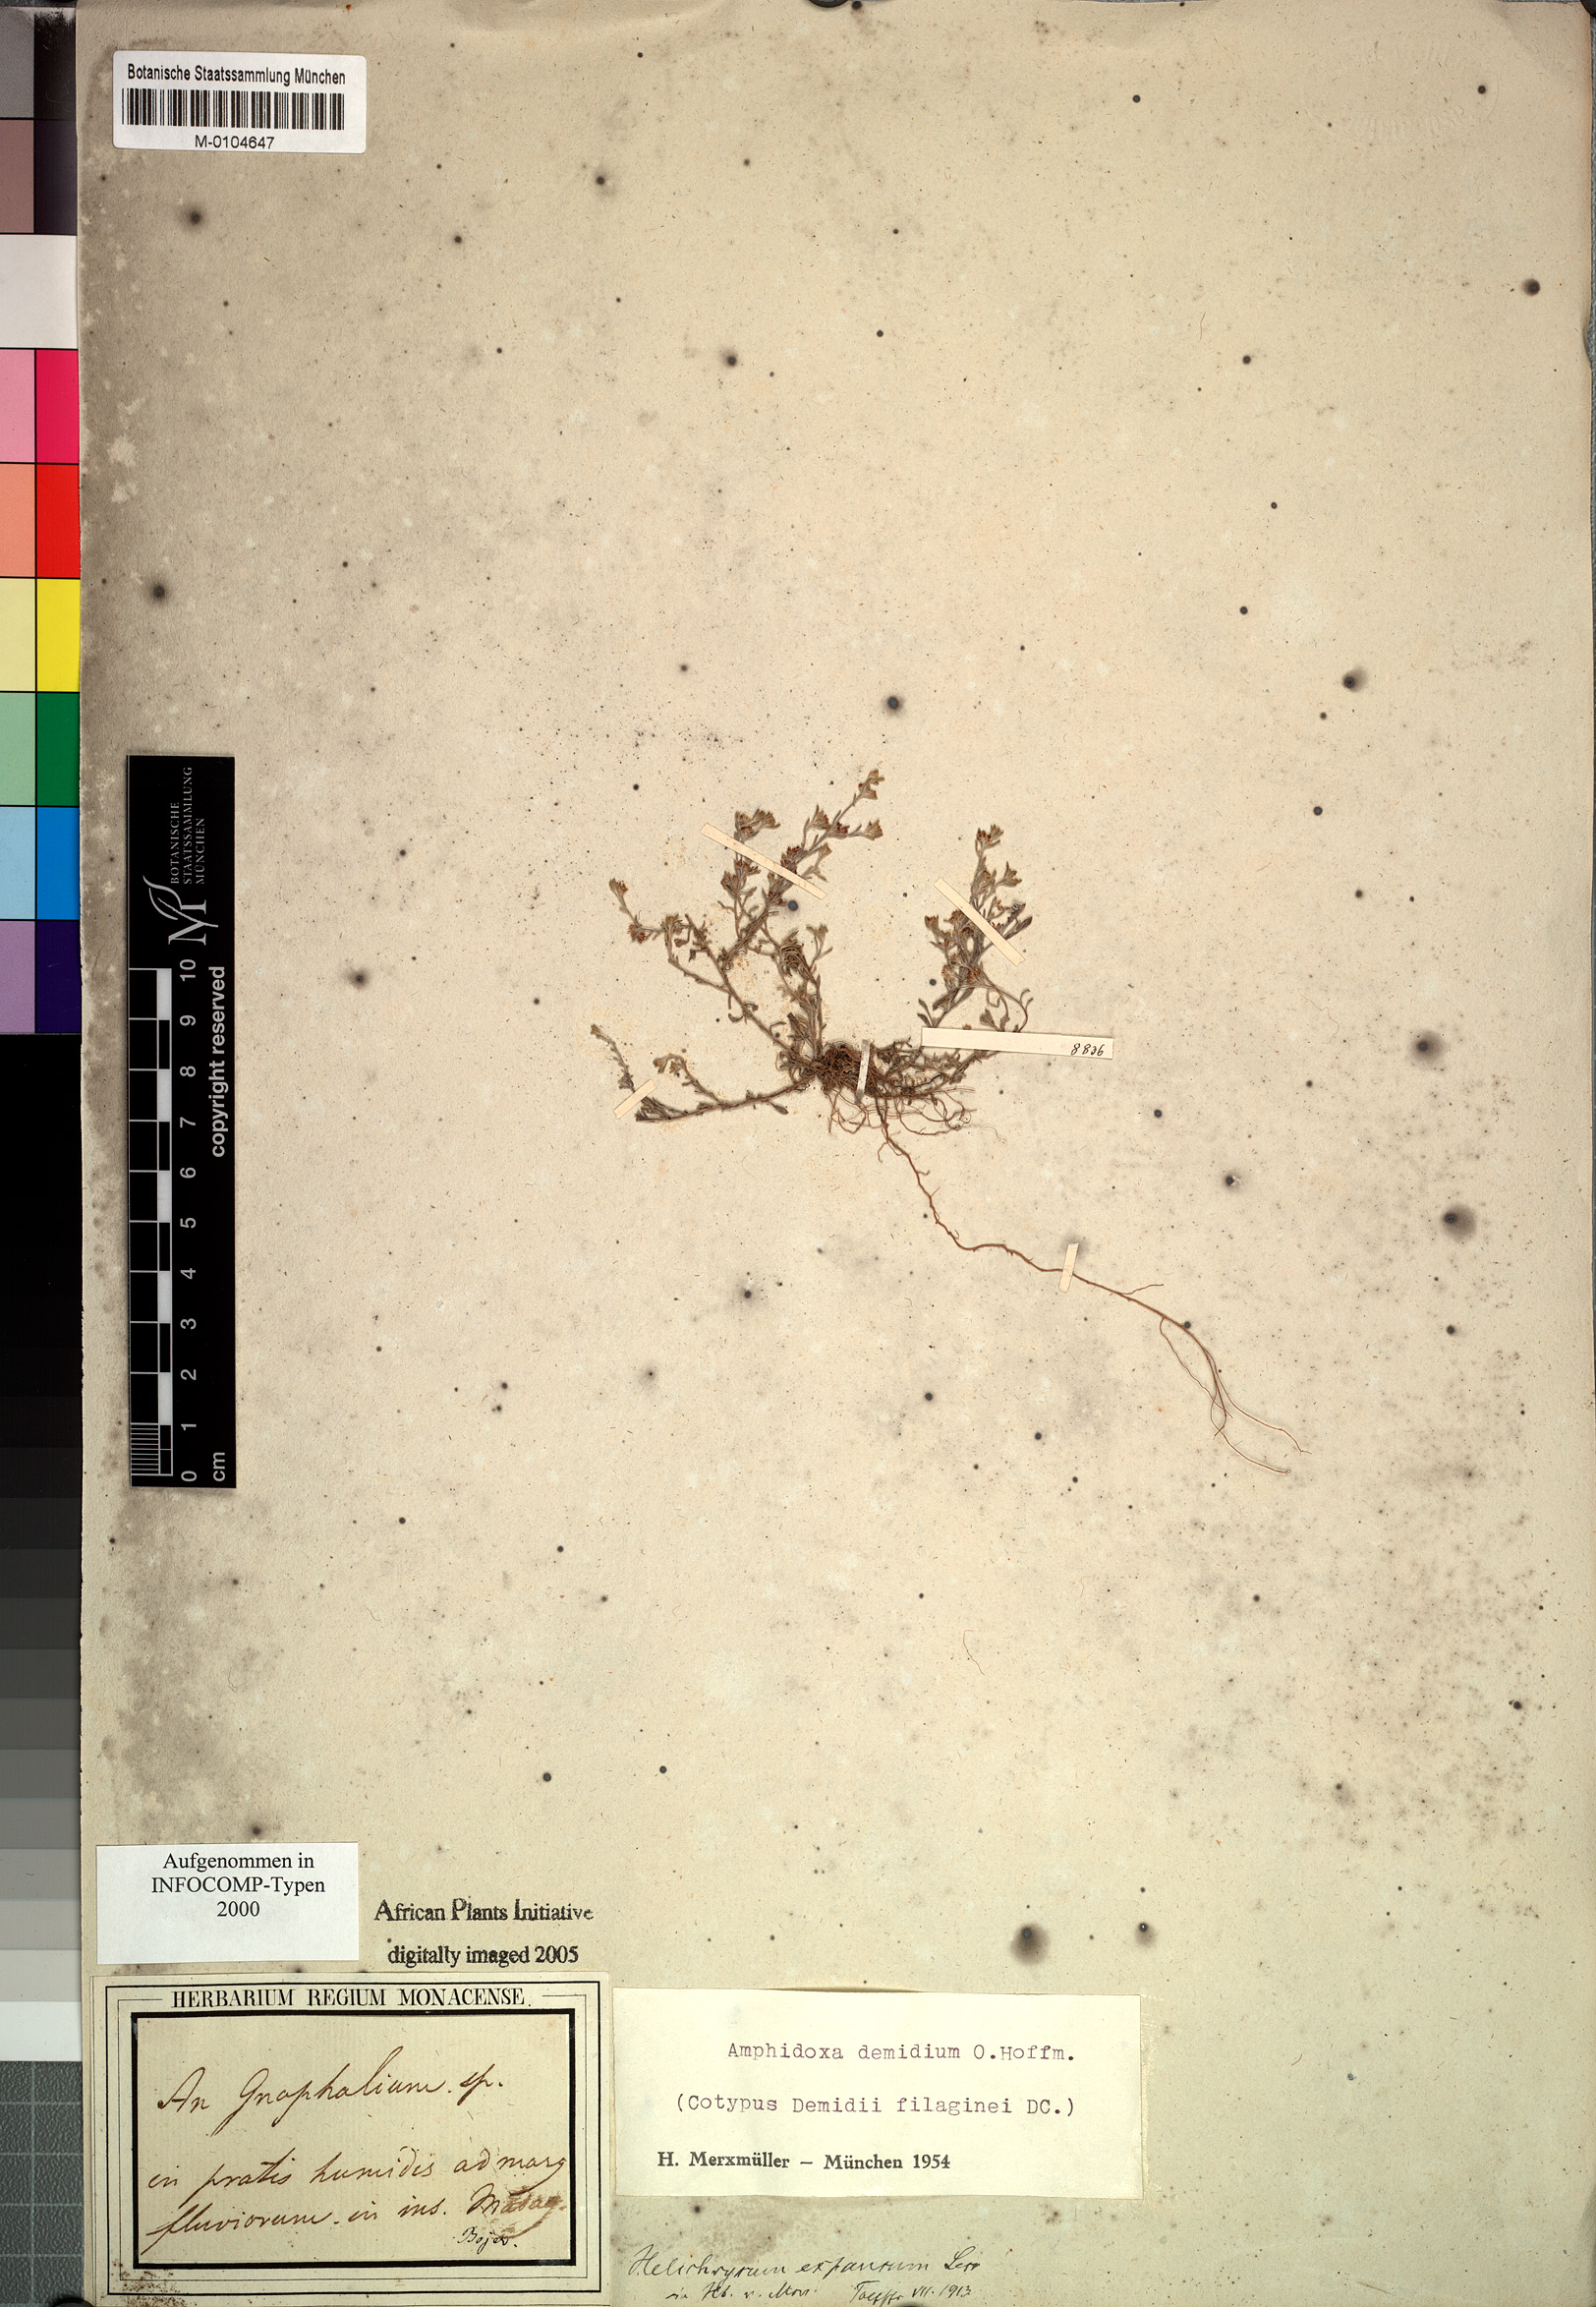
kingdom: Plantae
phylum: Tracheophyta
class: Magnoliopsida
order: Asterales
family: Asteraceae
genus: Gnaphalium
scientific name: Gnaphalium demidium
